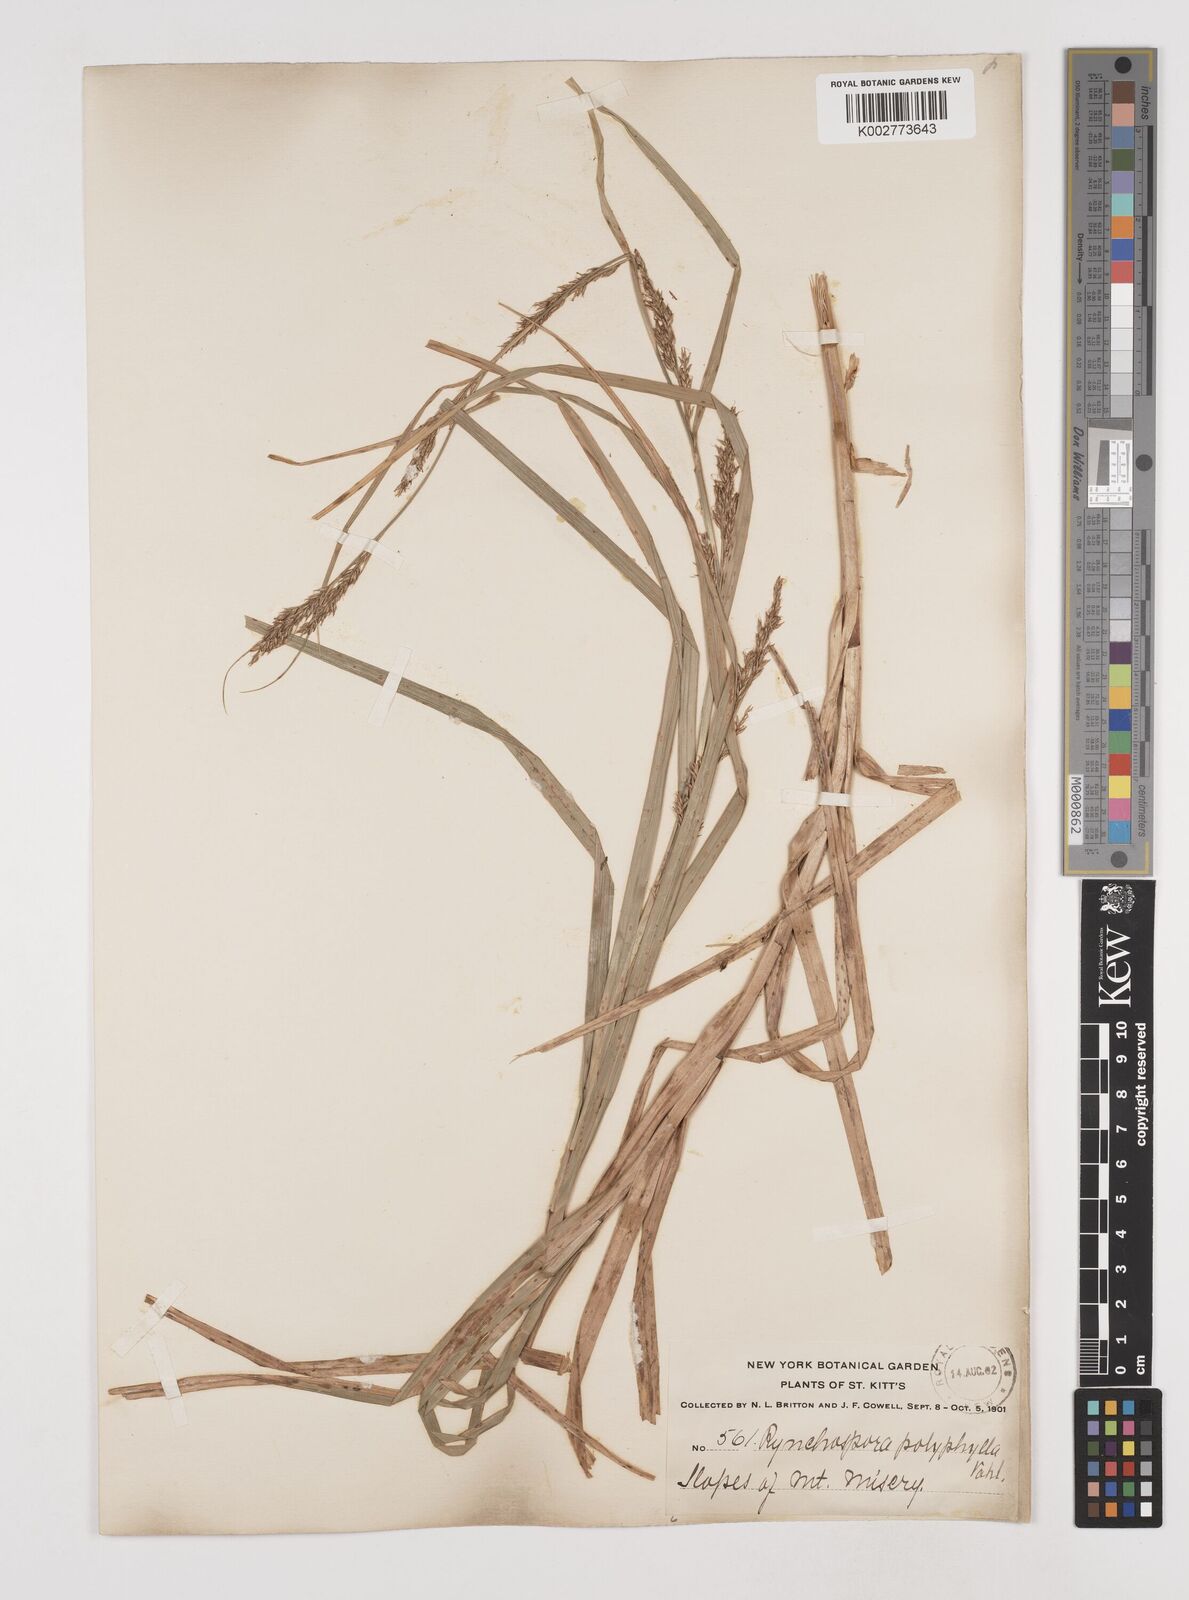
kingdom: Plantae
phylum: Tracheophyta
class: Liliopsida
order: Poales
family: Cyperaceae
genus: Rhynchospora
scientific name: Rhynchospora polyphylla
